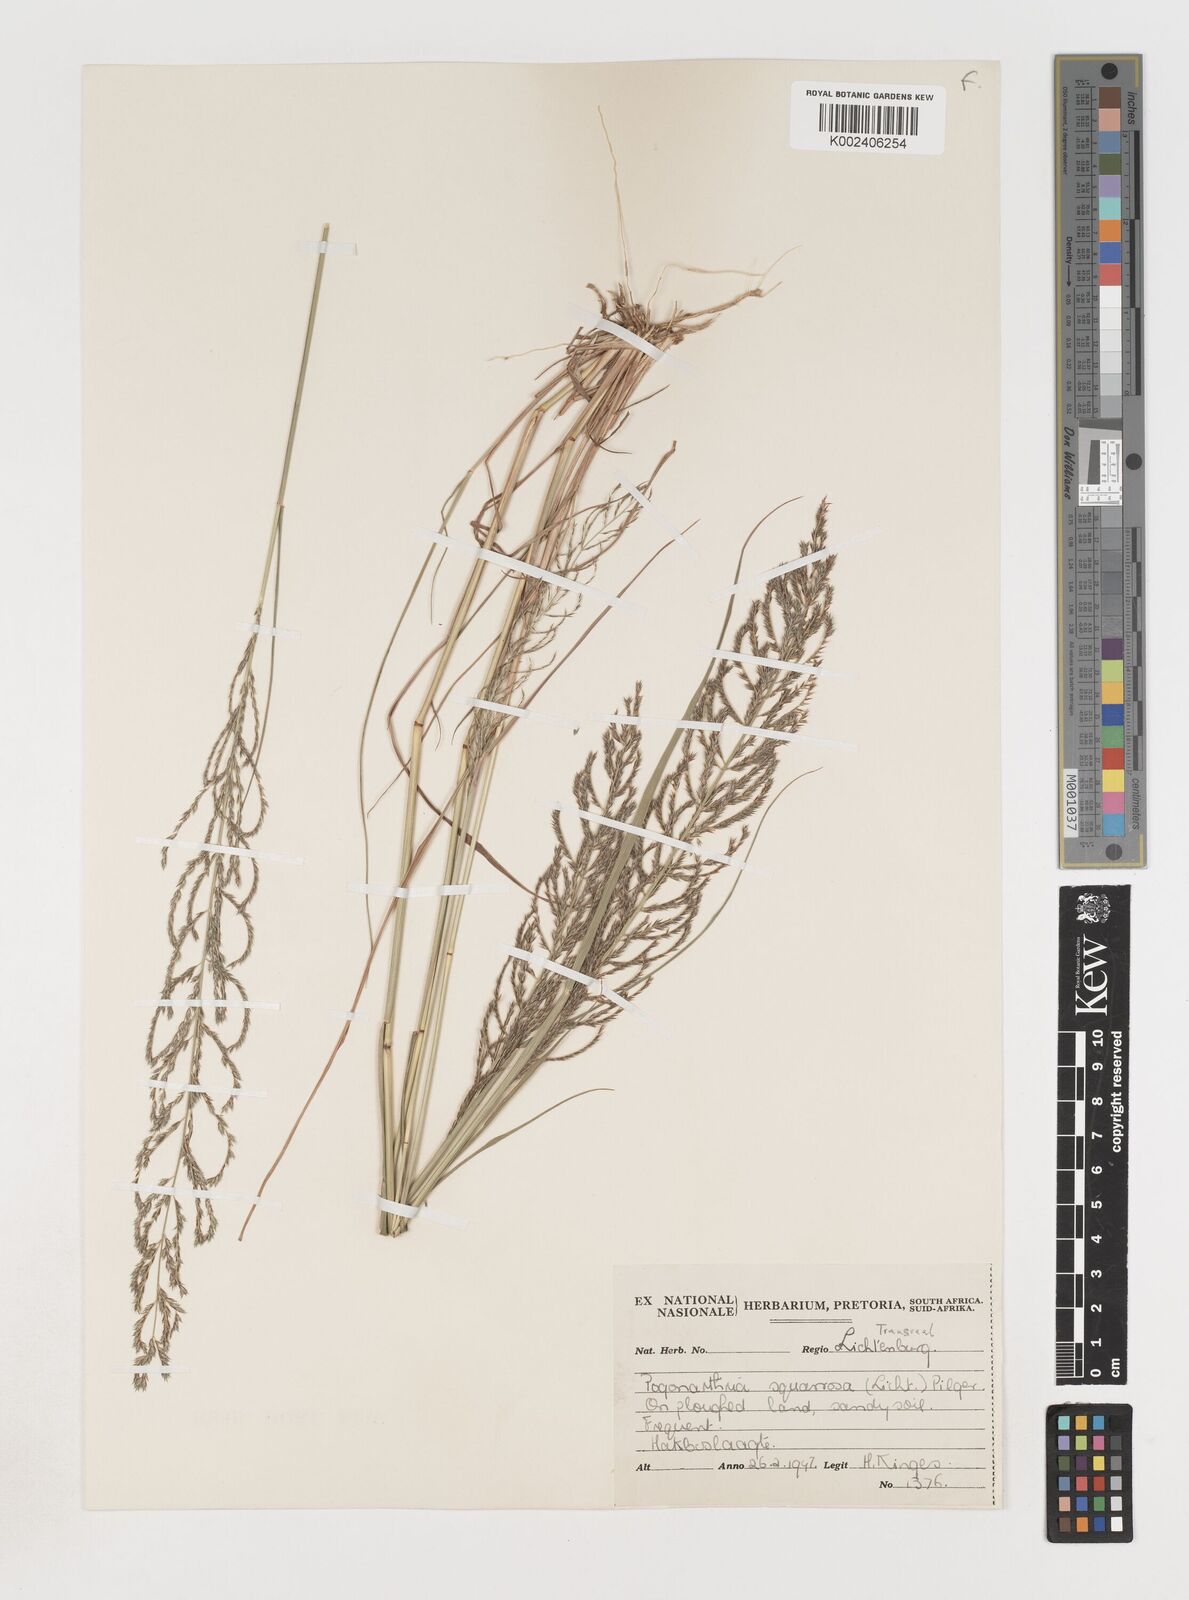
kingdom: Plantae
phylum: Tracheophyta
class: Liliopsida
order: Poales
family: Poaceae
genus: Pogonarthria
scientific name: Pogonarthria squarrosa
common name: Grass
